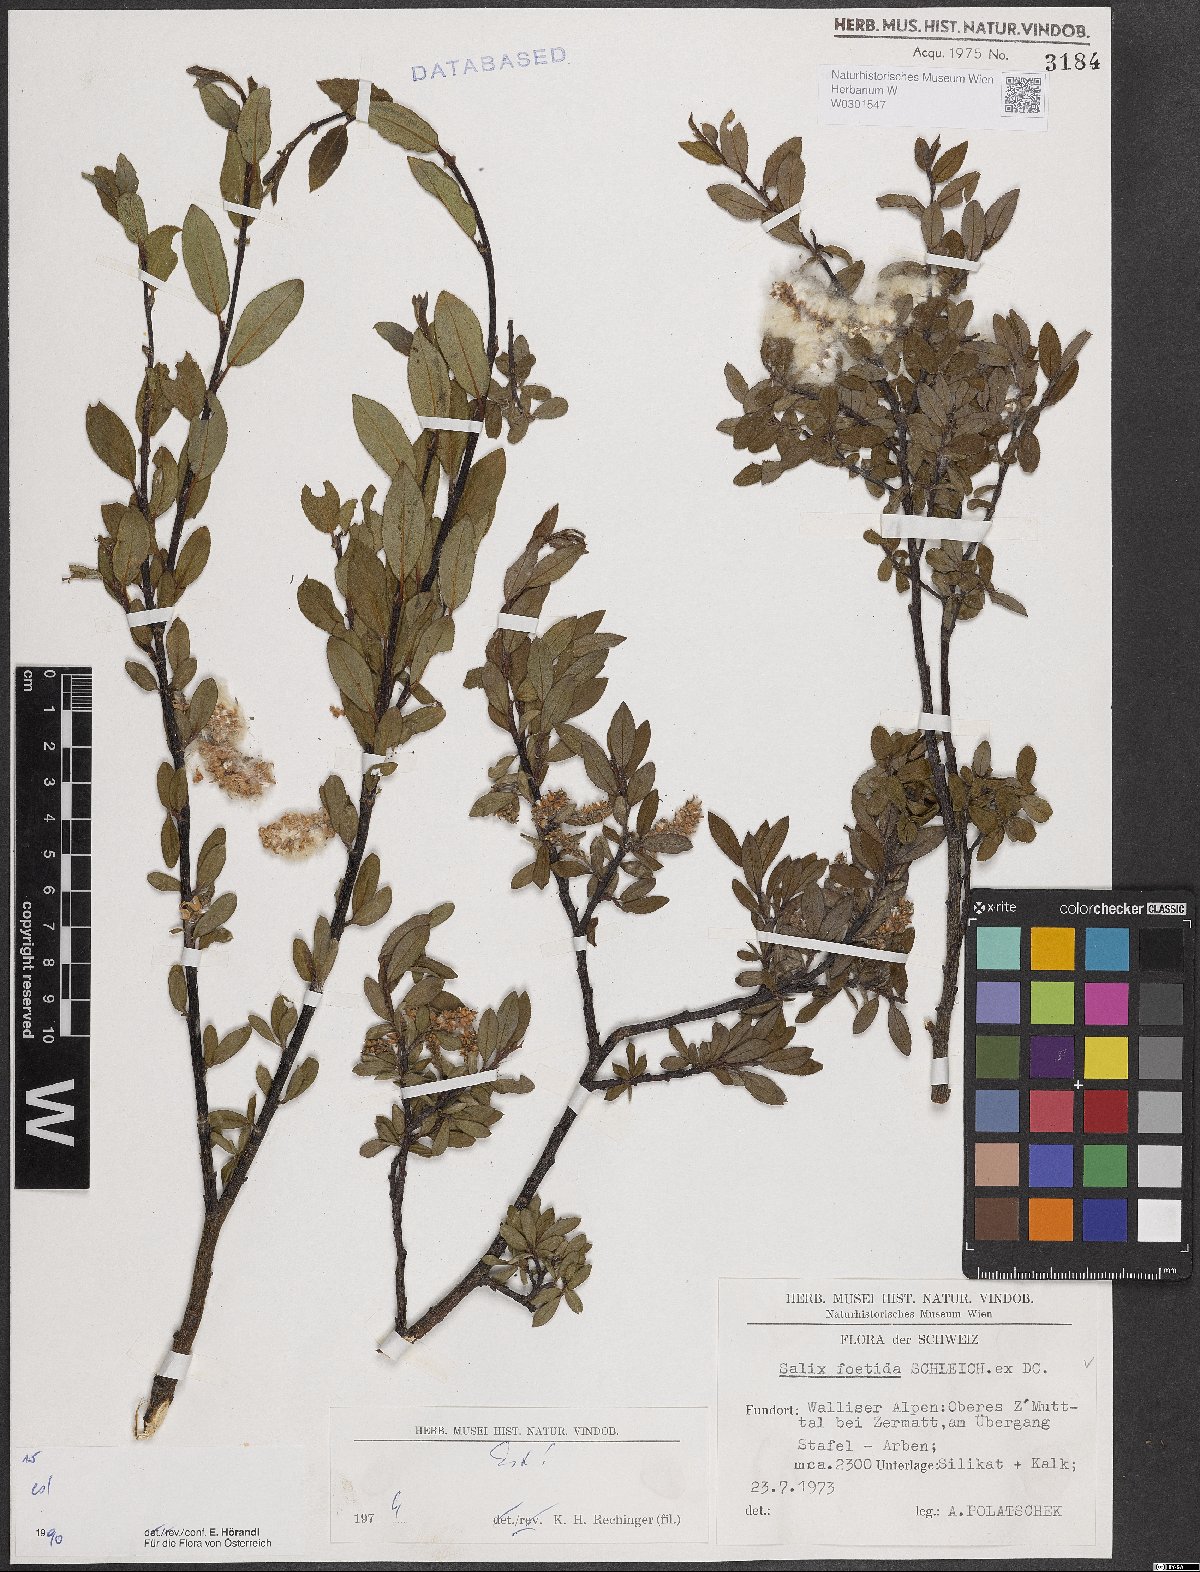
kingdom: Plantae
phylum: Tracheophyta
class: Magnoliopsida
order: Malpighiales
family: Salicaceae
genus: Salix
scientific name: Salix foetida
